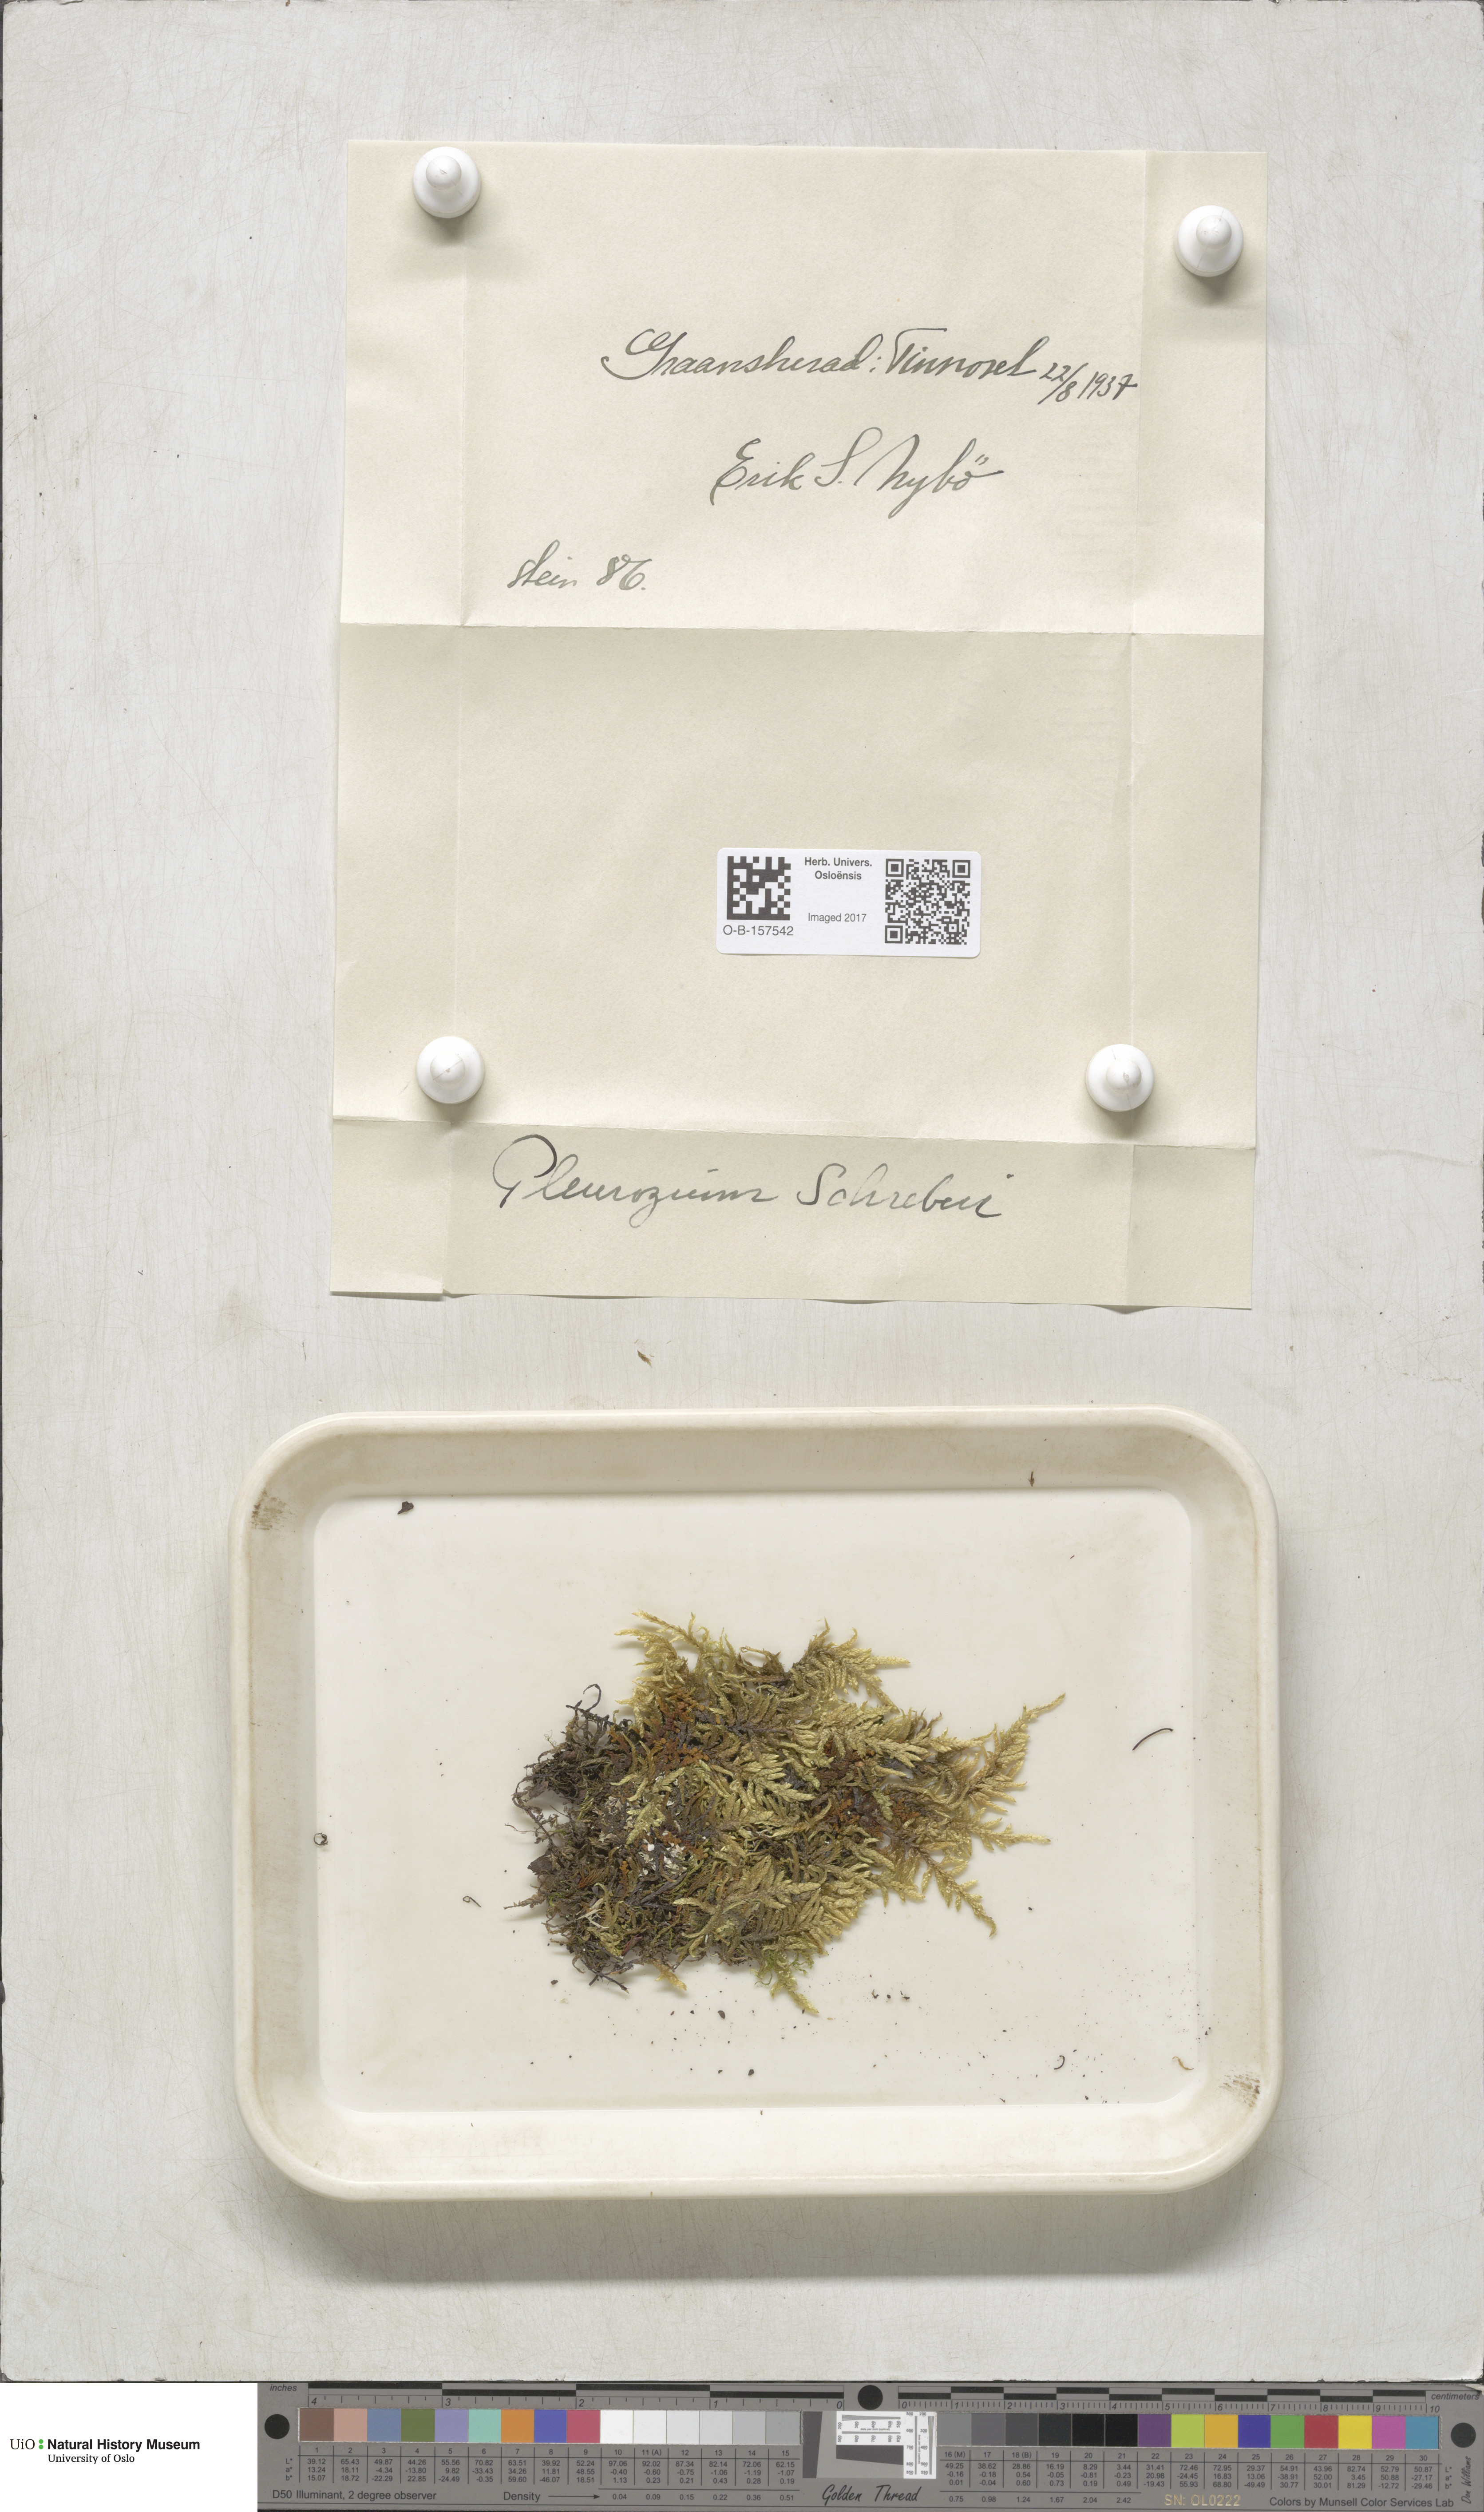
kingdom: Plantae
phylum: Bryophyta
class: Bryopsida
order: Hypnales
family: Hylocomiaceae
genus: Pleurozium
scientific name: Pleurozium schreberi
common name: Red-stemmed feather moss
